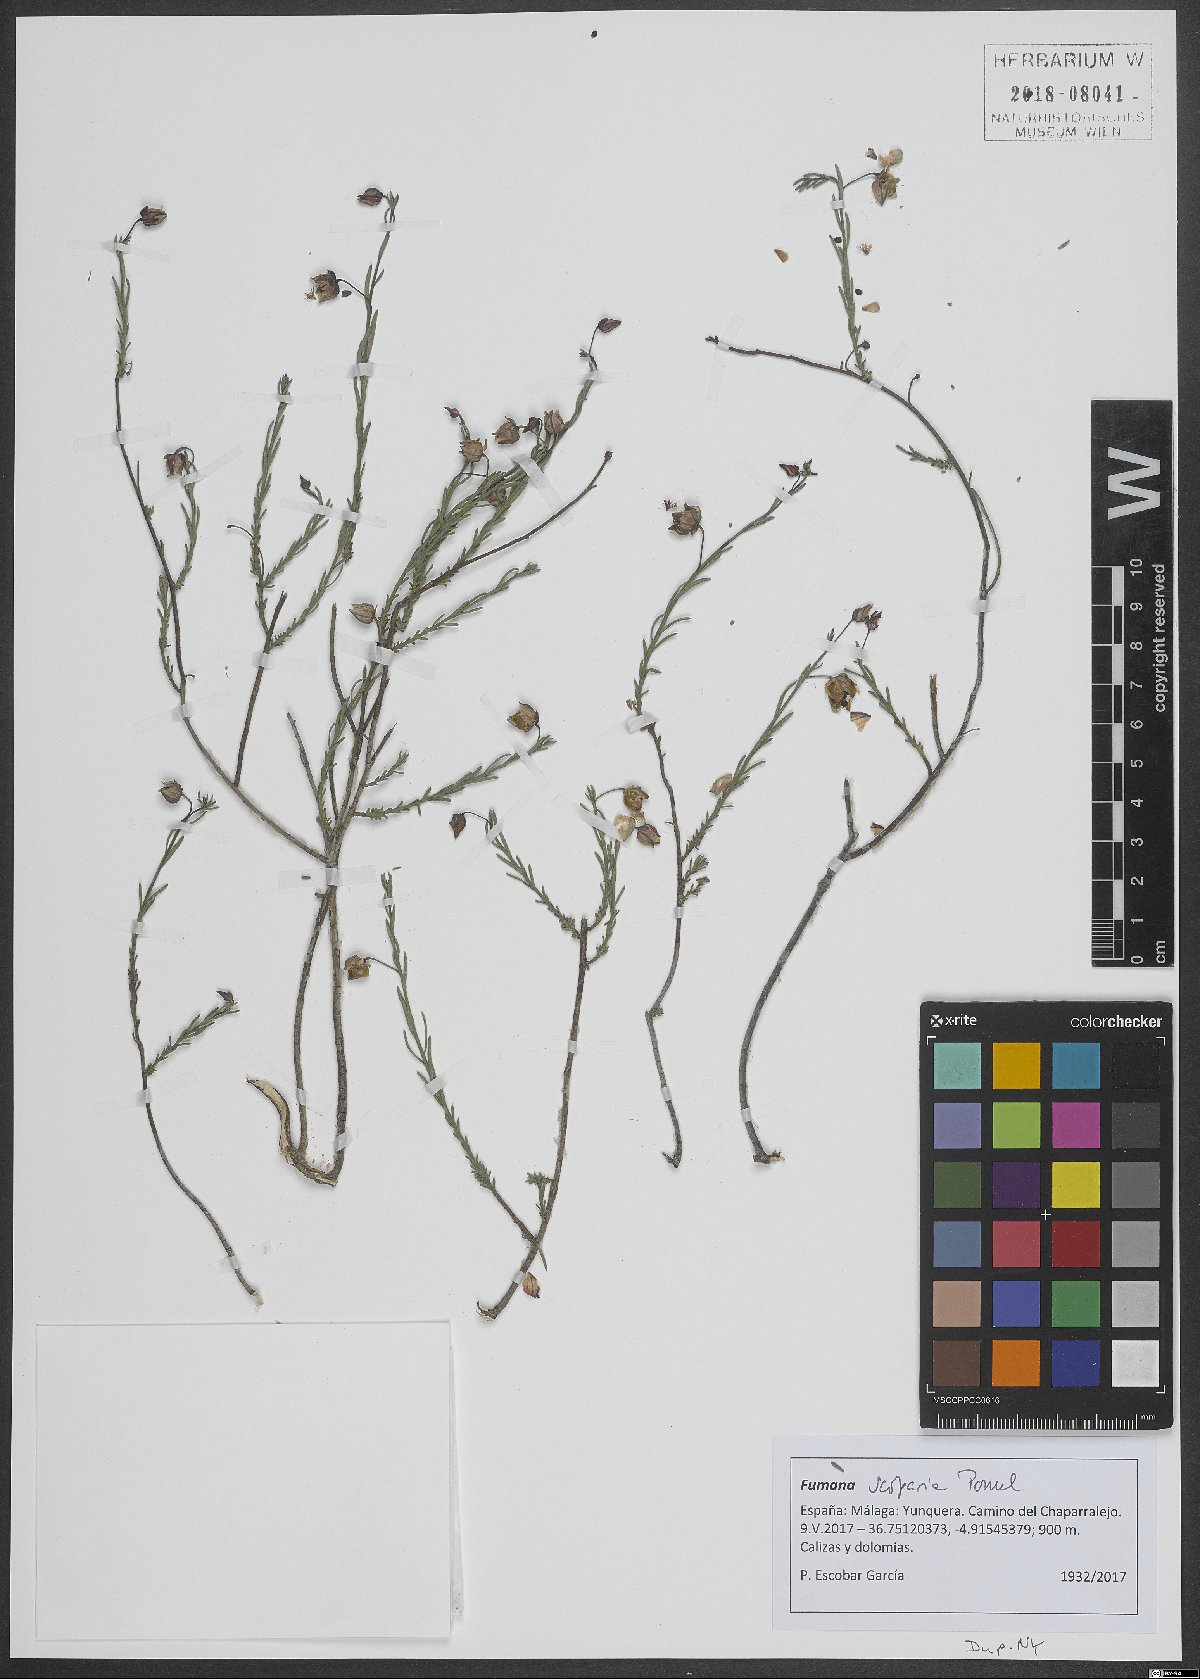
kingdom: Plantae
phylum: Tracheophyta
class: Magnoliopsida
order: Malvales
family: Cistaceae
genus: Fumana
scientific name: Fumana scoparia
